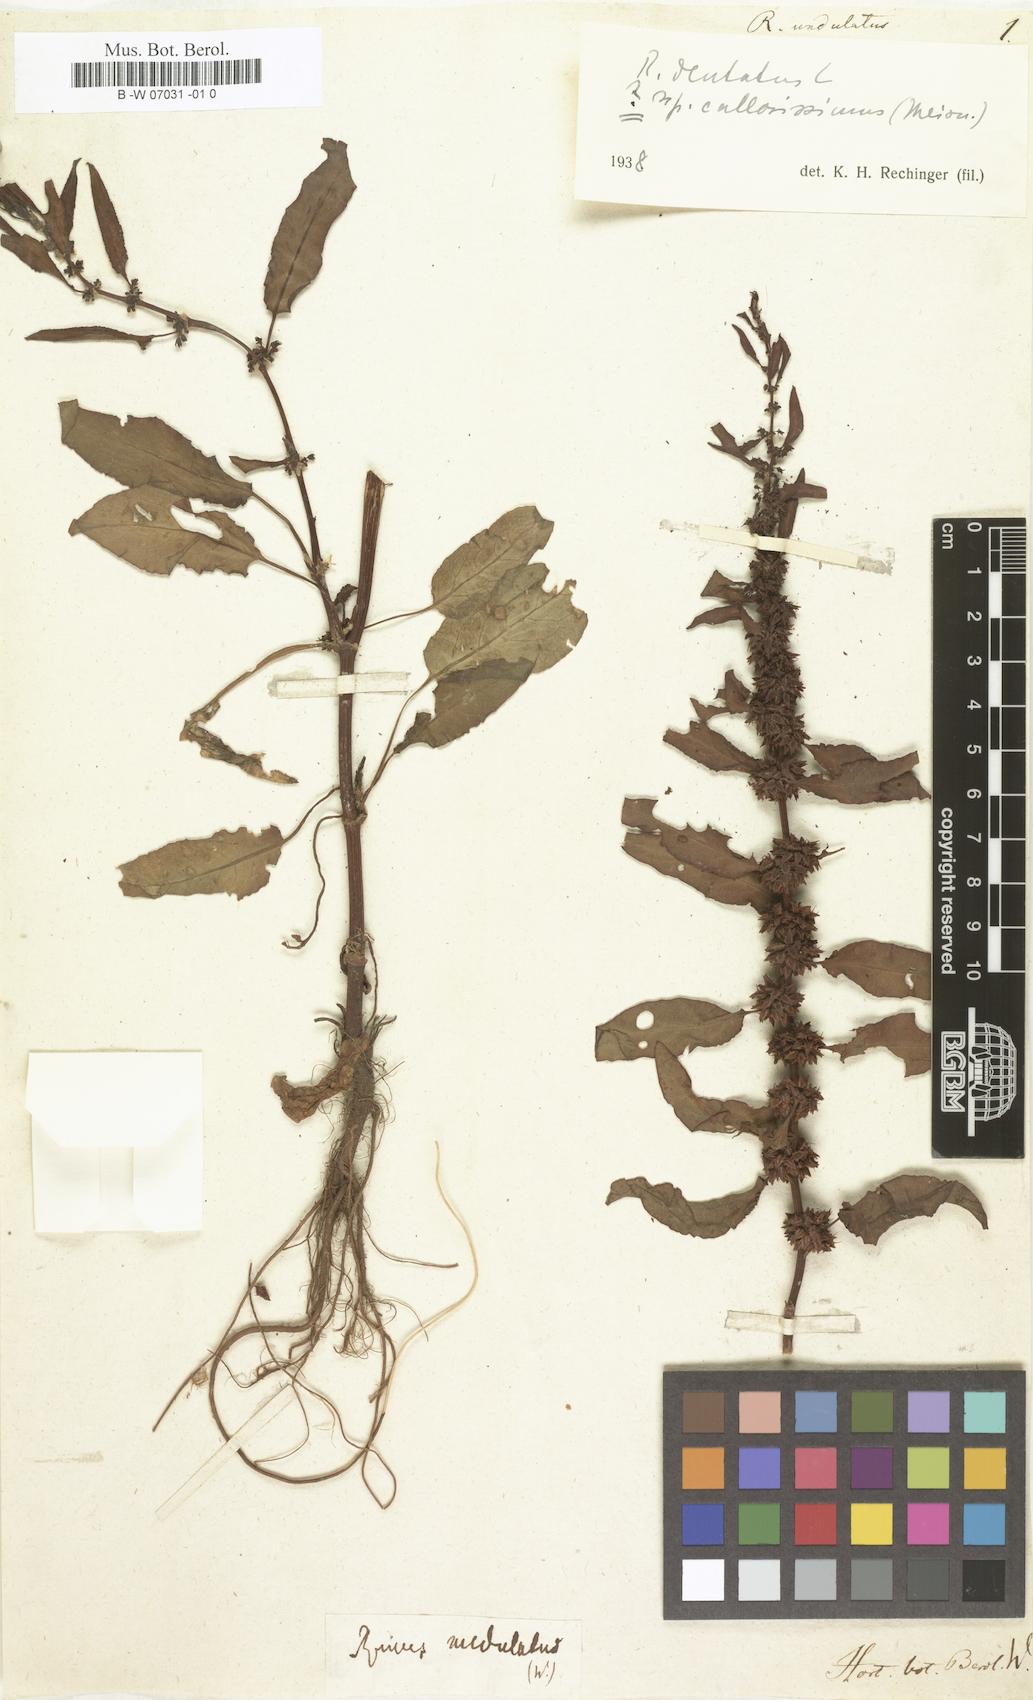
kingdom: Plantae
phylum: Tracheophyta
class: Magnoliopsida
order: Caryophyllales
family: Polygonaceae
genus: Rumex
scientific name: Rumex
